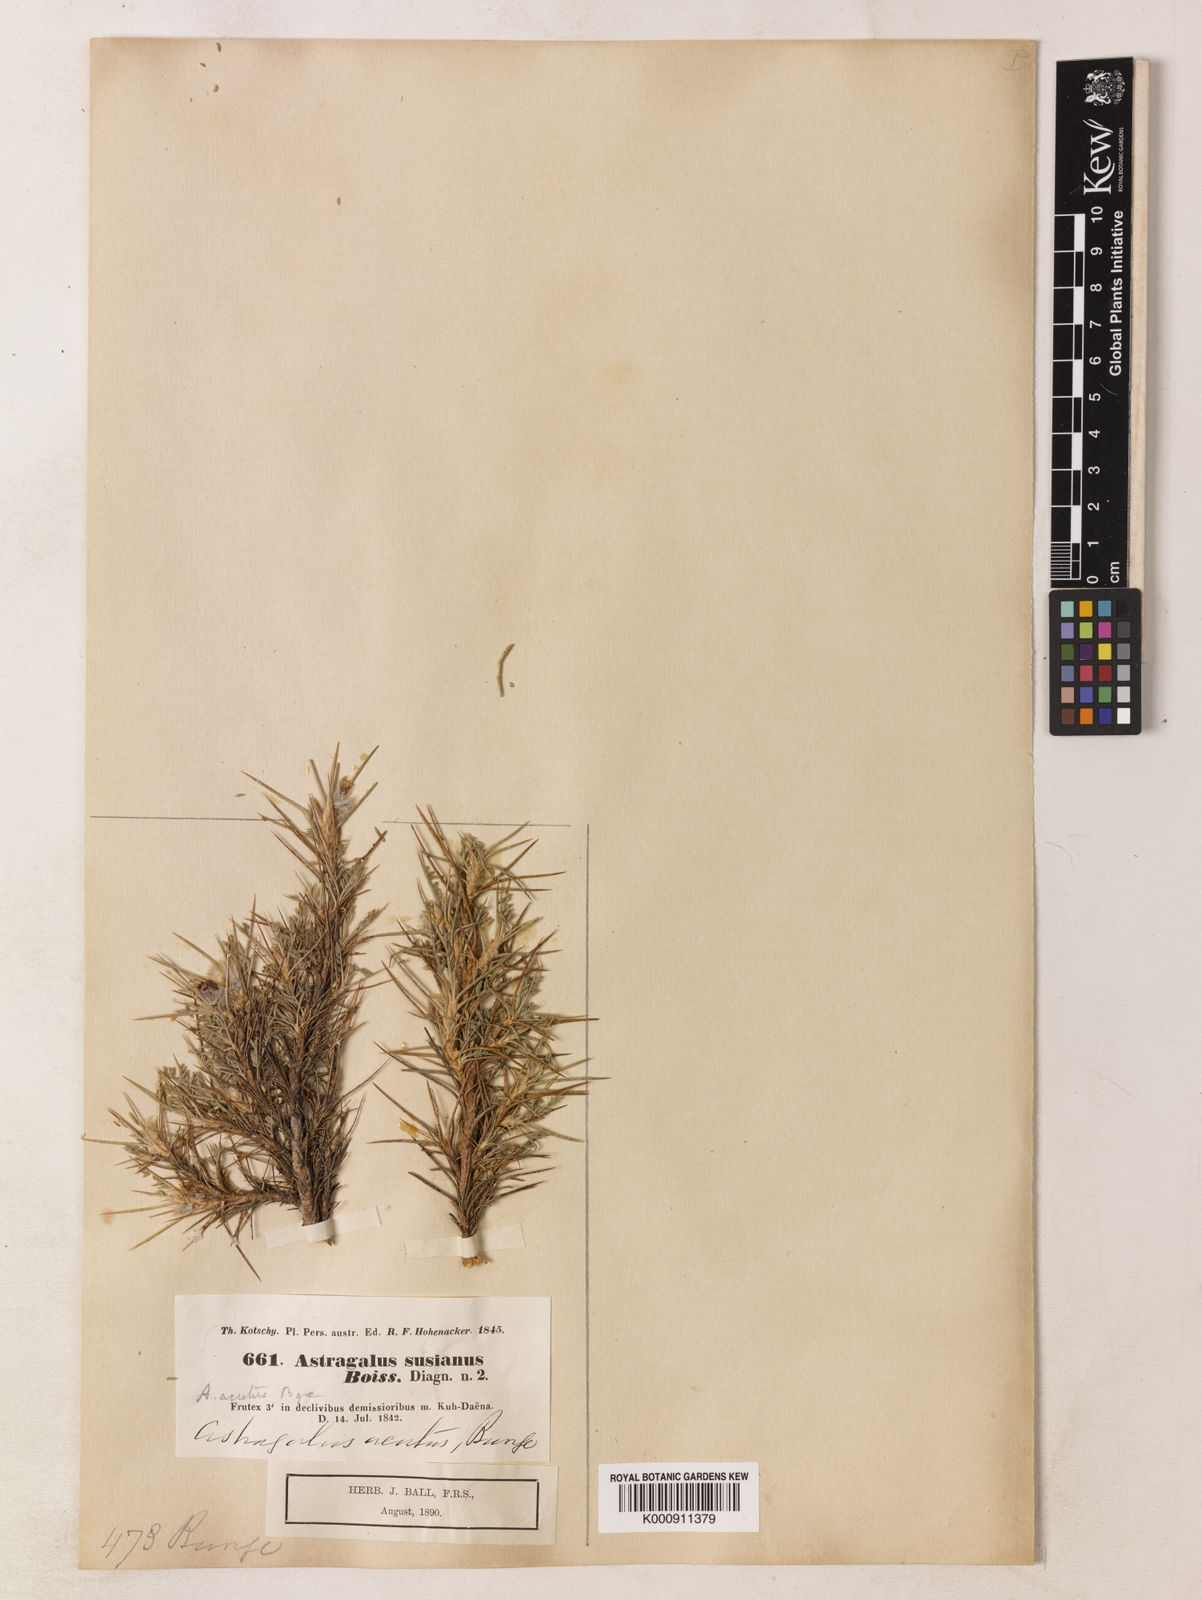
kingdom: Plantae
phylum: Tracheophyta
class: Magnoliopsida
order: Fabales
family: Fabaceae
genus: Astragalus
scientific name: Astragalus susianus
